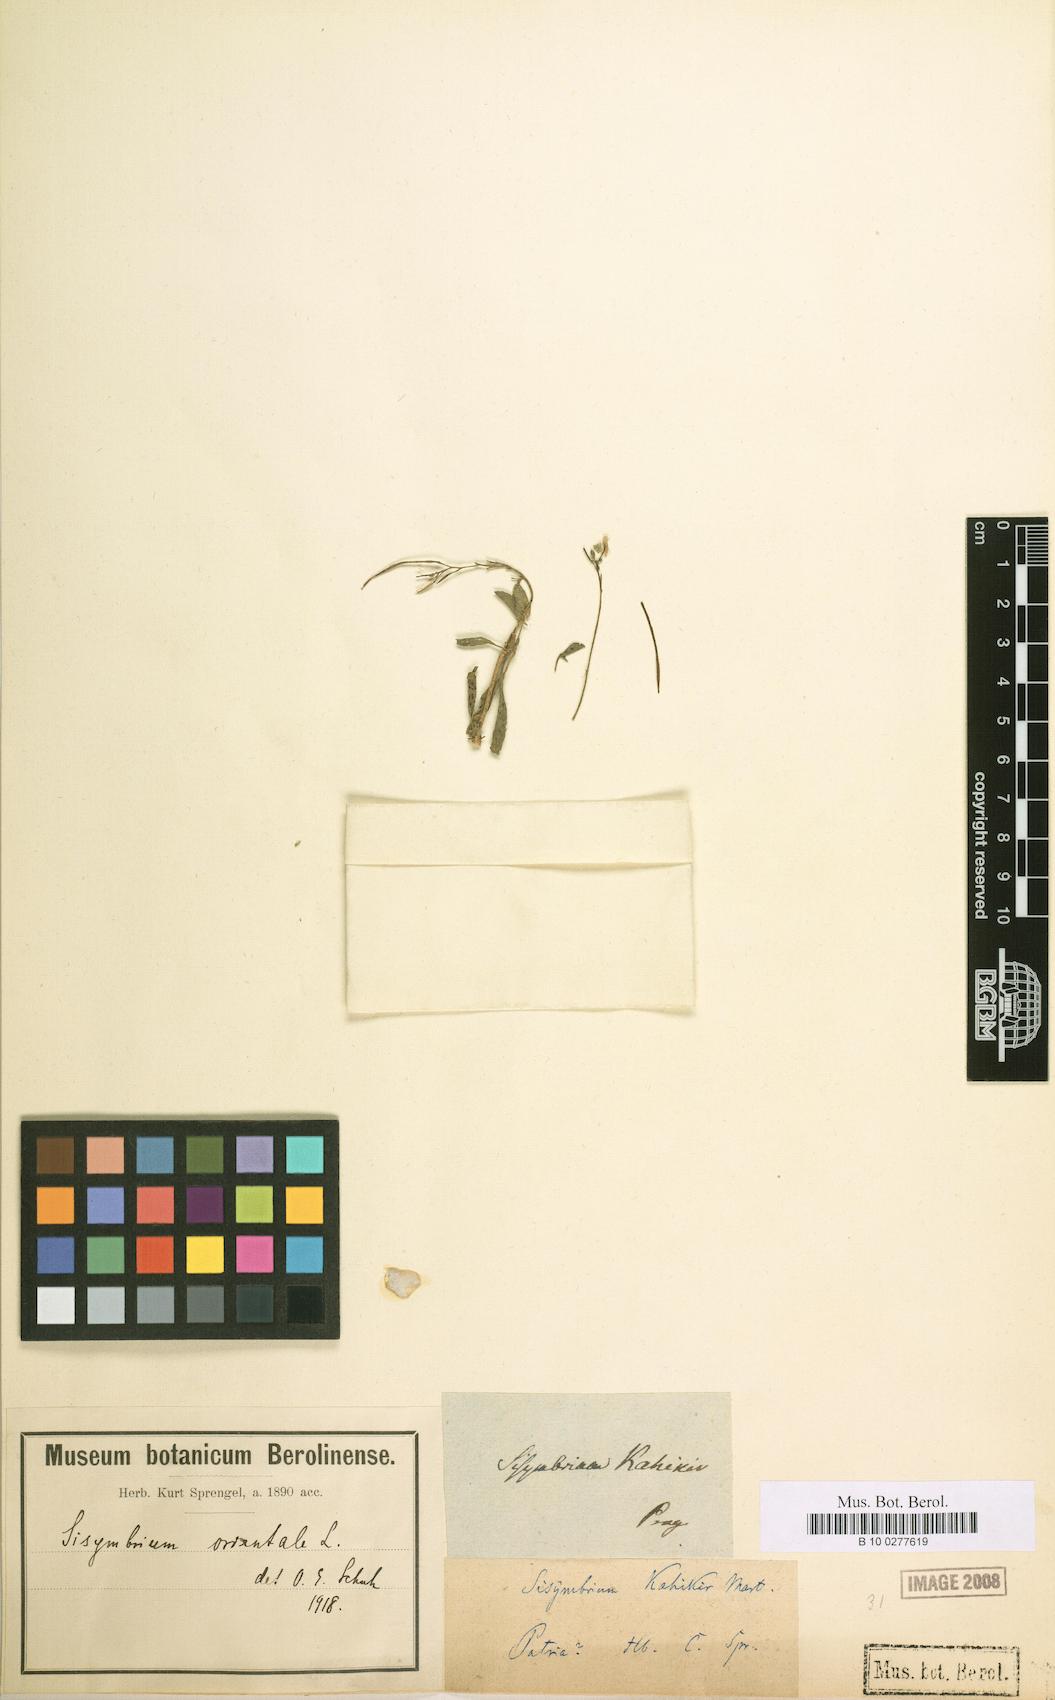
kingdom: Plantae
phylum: Tracheophyta
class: Magnoliopsida
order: Brassicales
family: Brassicaceae
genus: Sisymbrium
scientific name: Sisymbrium orientale
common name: Eastern rocket
